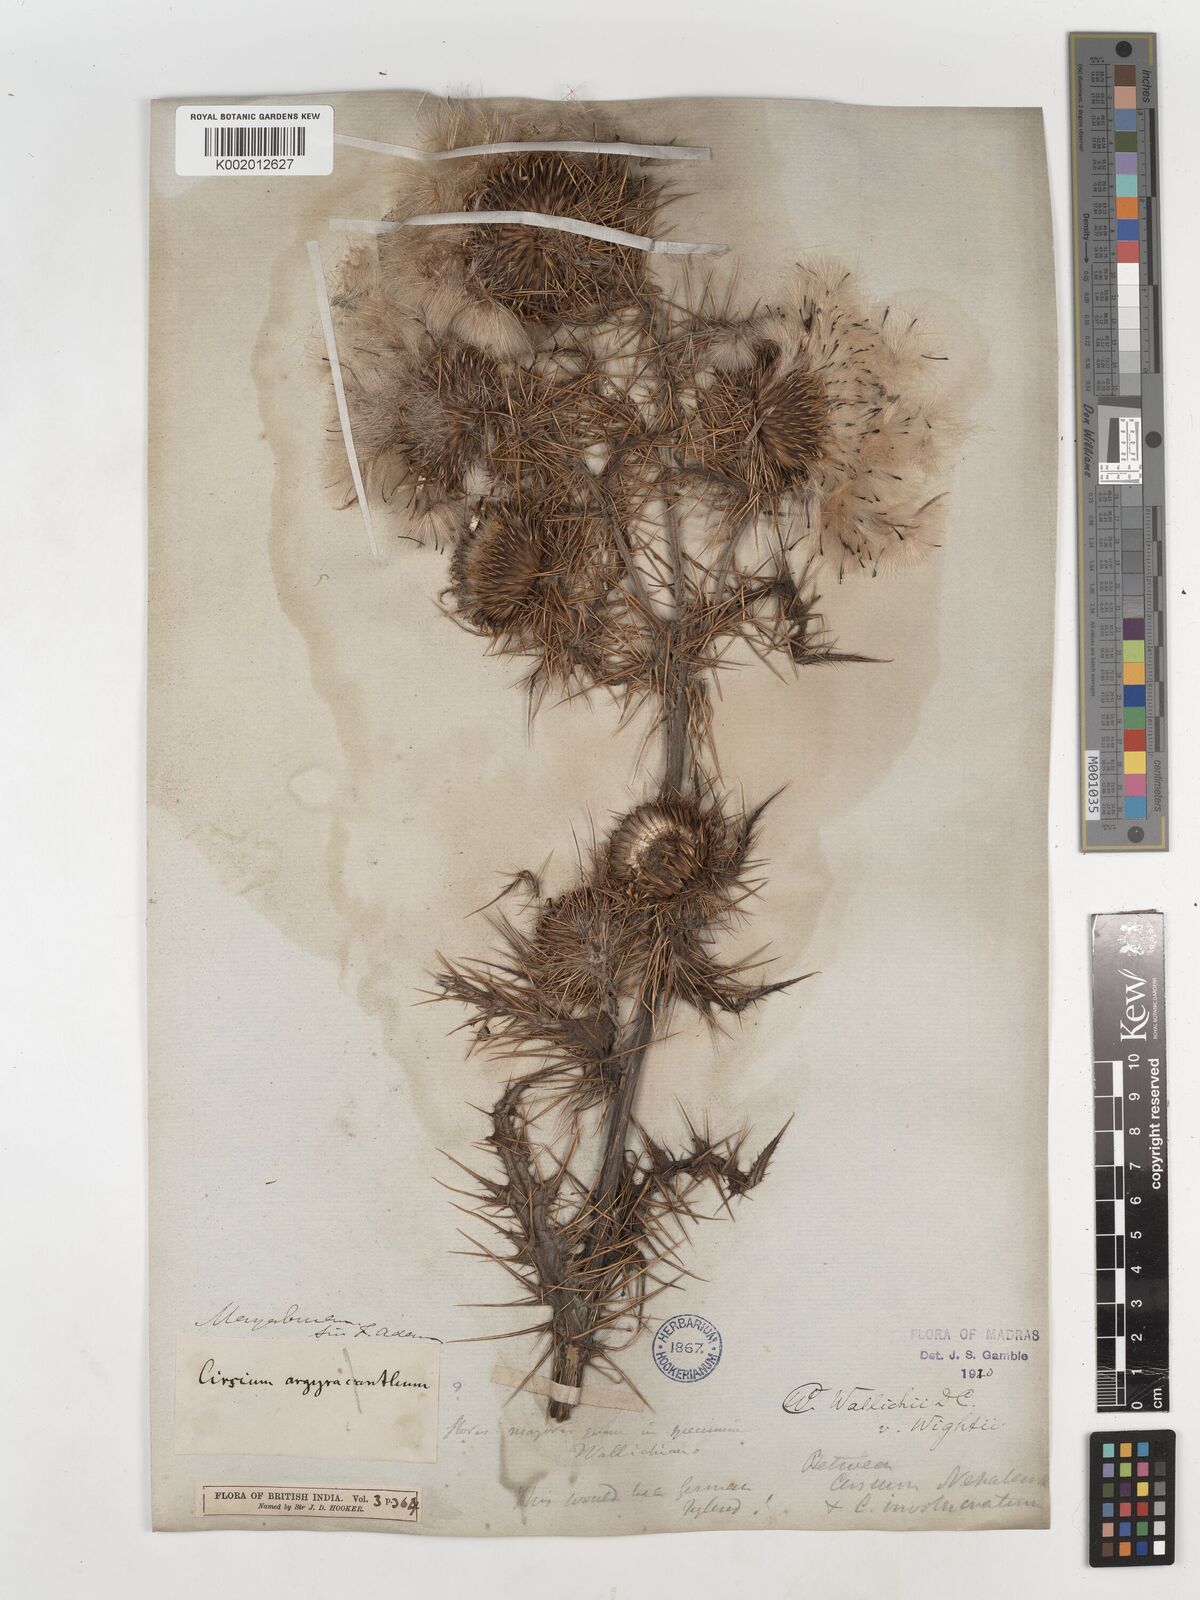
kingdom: Plantae
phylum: Tracheophyta
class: Magnoliopsida
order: Asterales
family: Asteraceae
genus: Cirsium
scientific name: Cirsium wallichii
